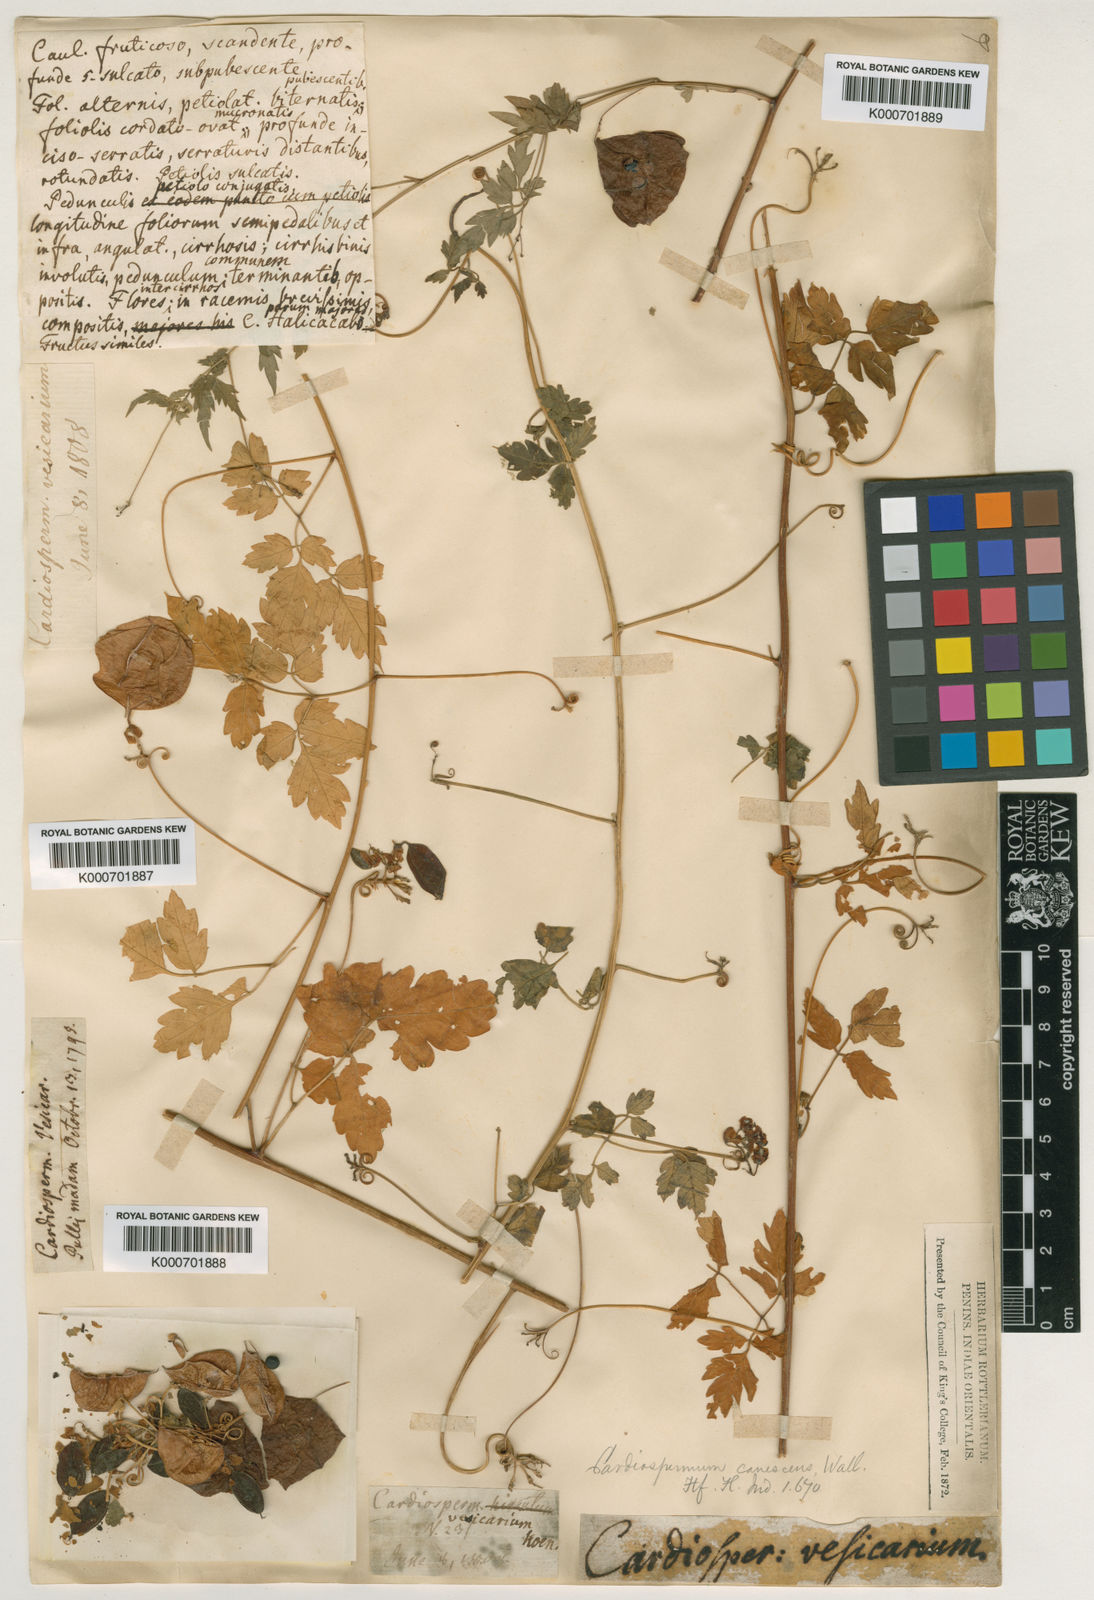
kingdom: Plantae
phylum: Tracheophyta
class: Magnoliopsida
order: Sapindales
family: Sapindaceae
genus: Cardiospermum
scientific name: Cardiospermum corindum
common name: Faux persil
